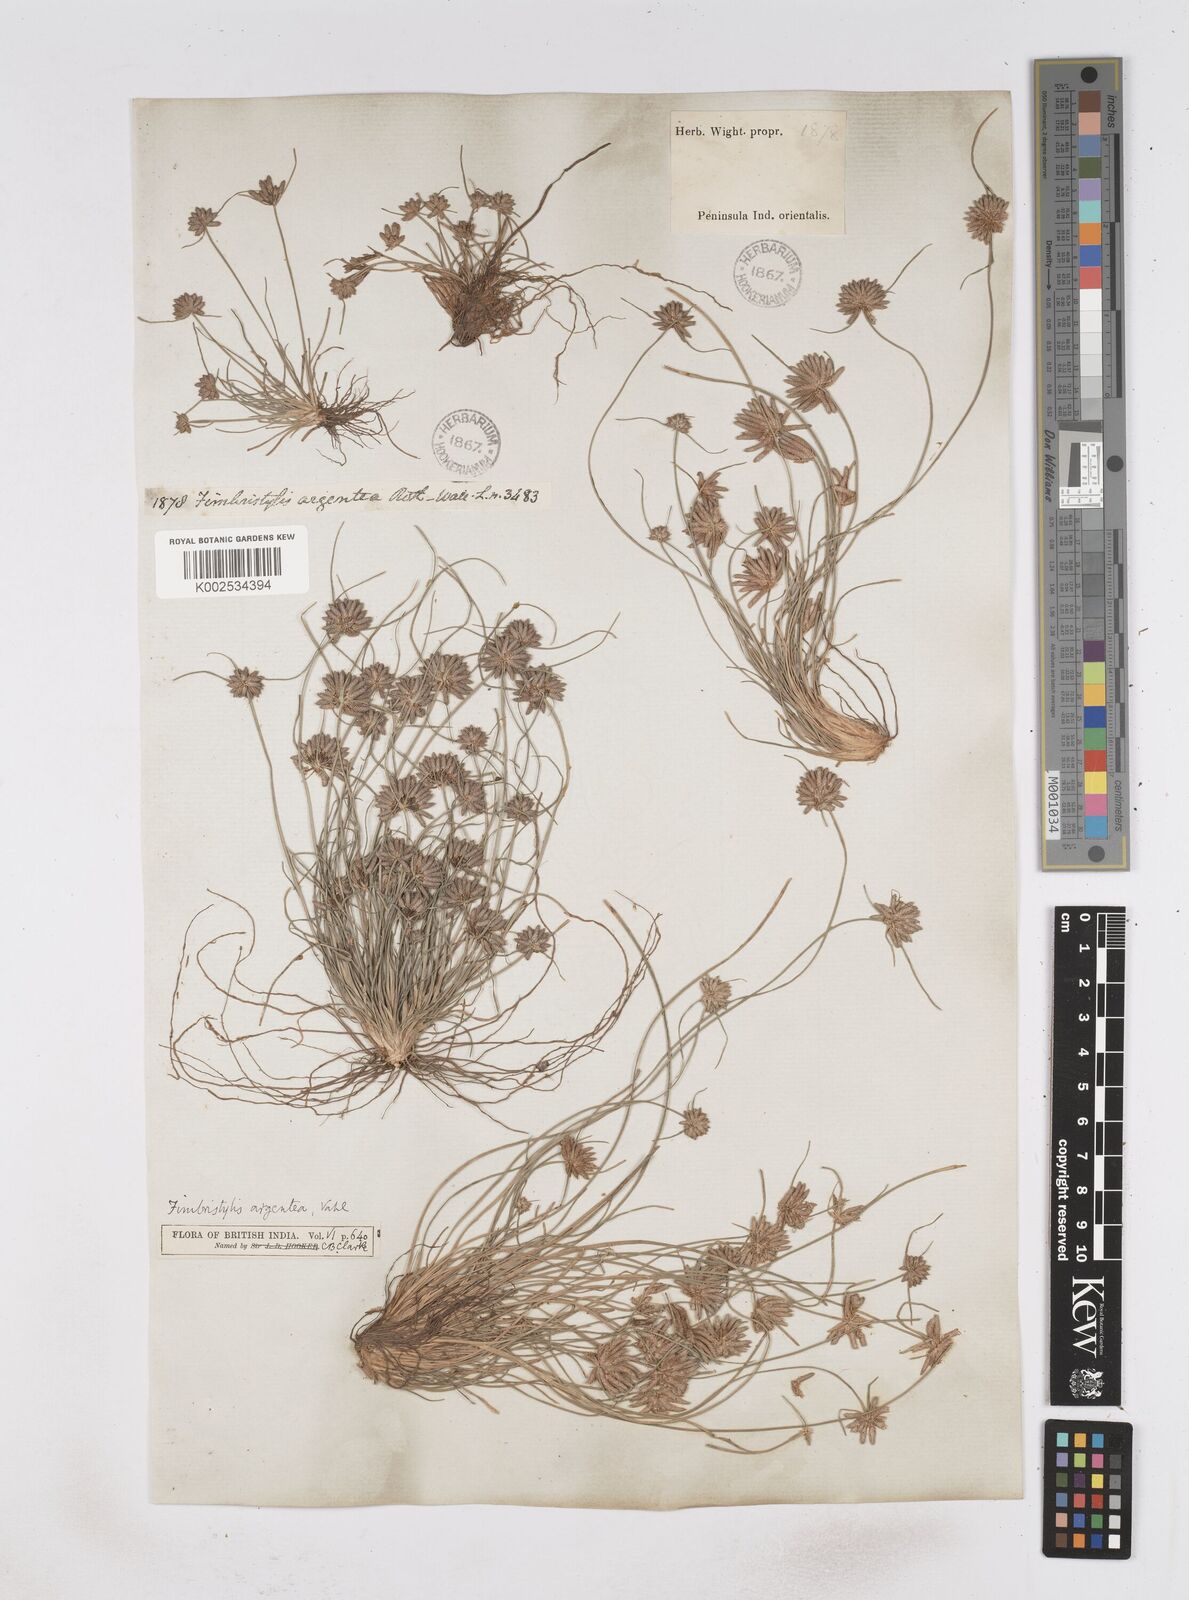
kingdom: Plantae
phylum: Tracheophyta
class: Liliopsida
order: Poales
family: Cyperaceae
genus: Fimbristylis
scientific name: Fimbristylis argentea
